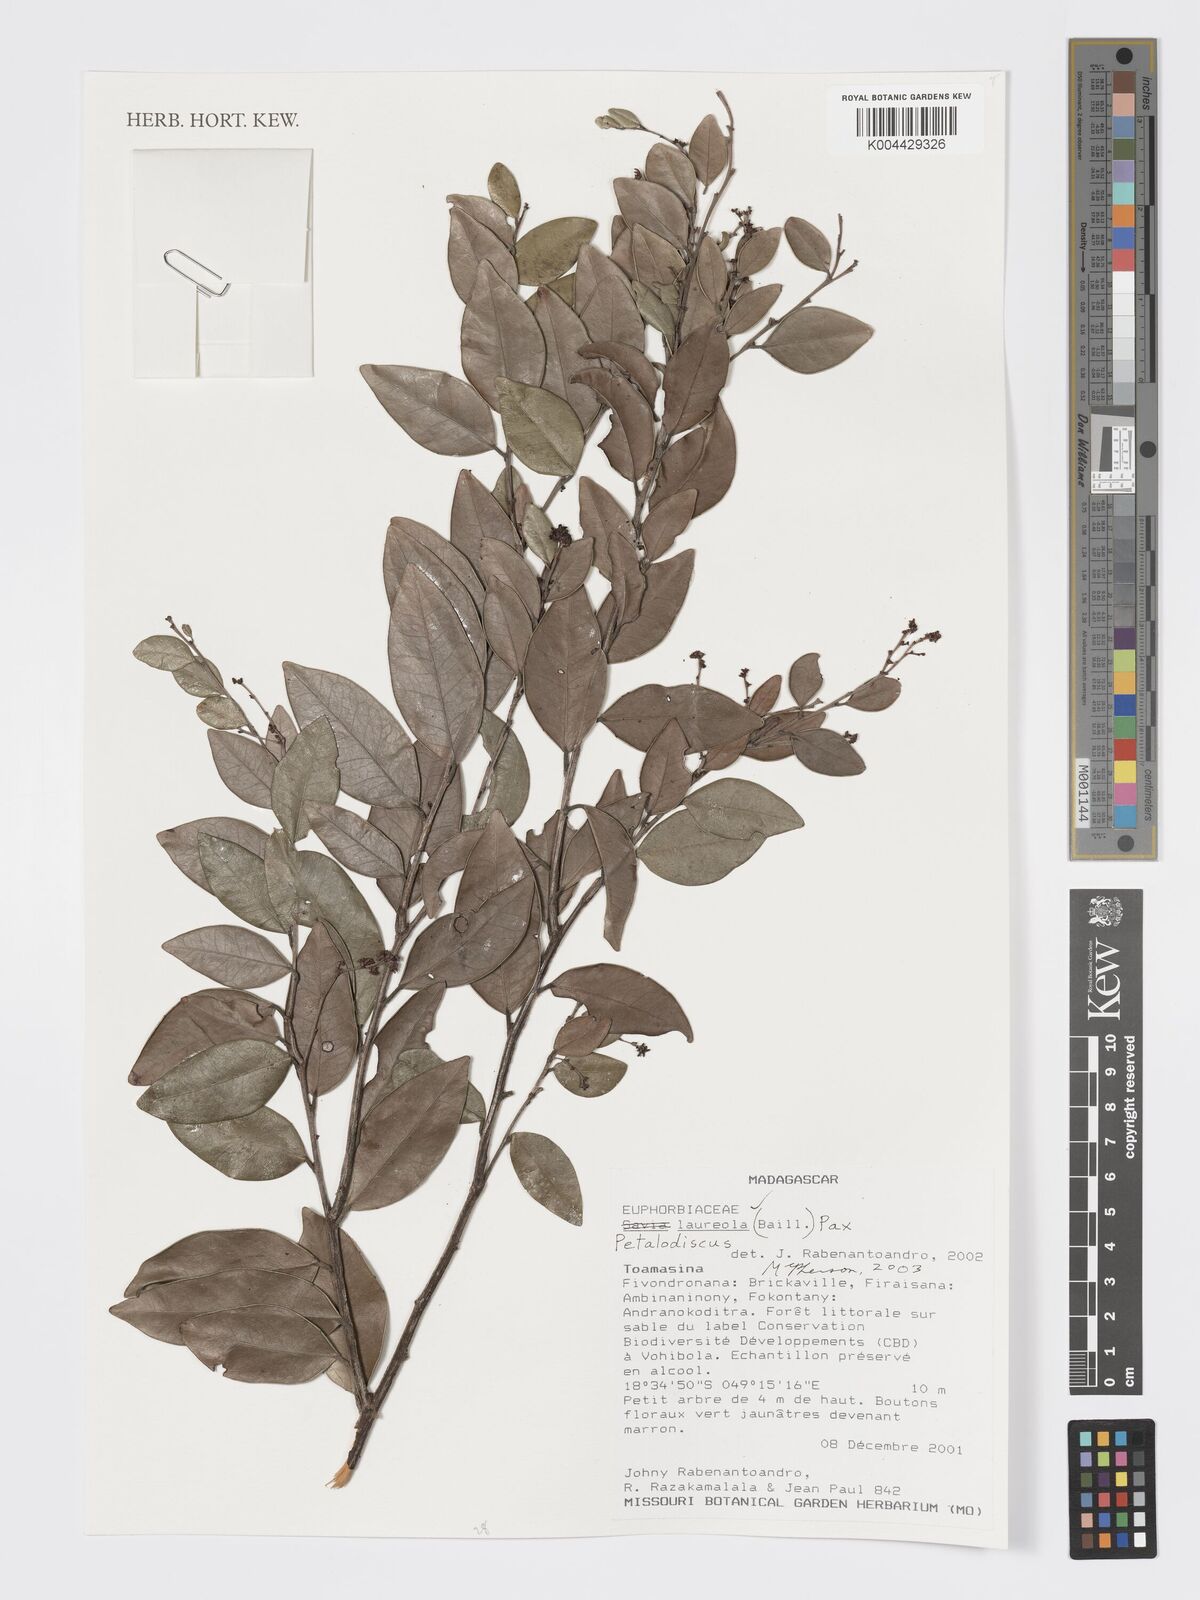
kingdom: Plantae
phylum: Tracheophyta
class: Magnoliopsida
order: Malpighiales
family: Phyllanthaceae
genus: Wielandia
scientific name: Wielandia laureola
